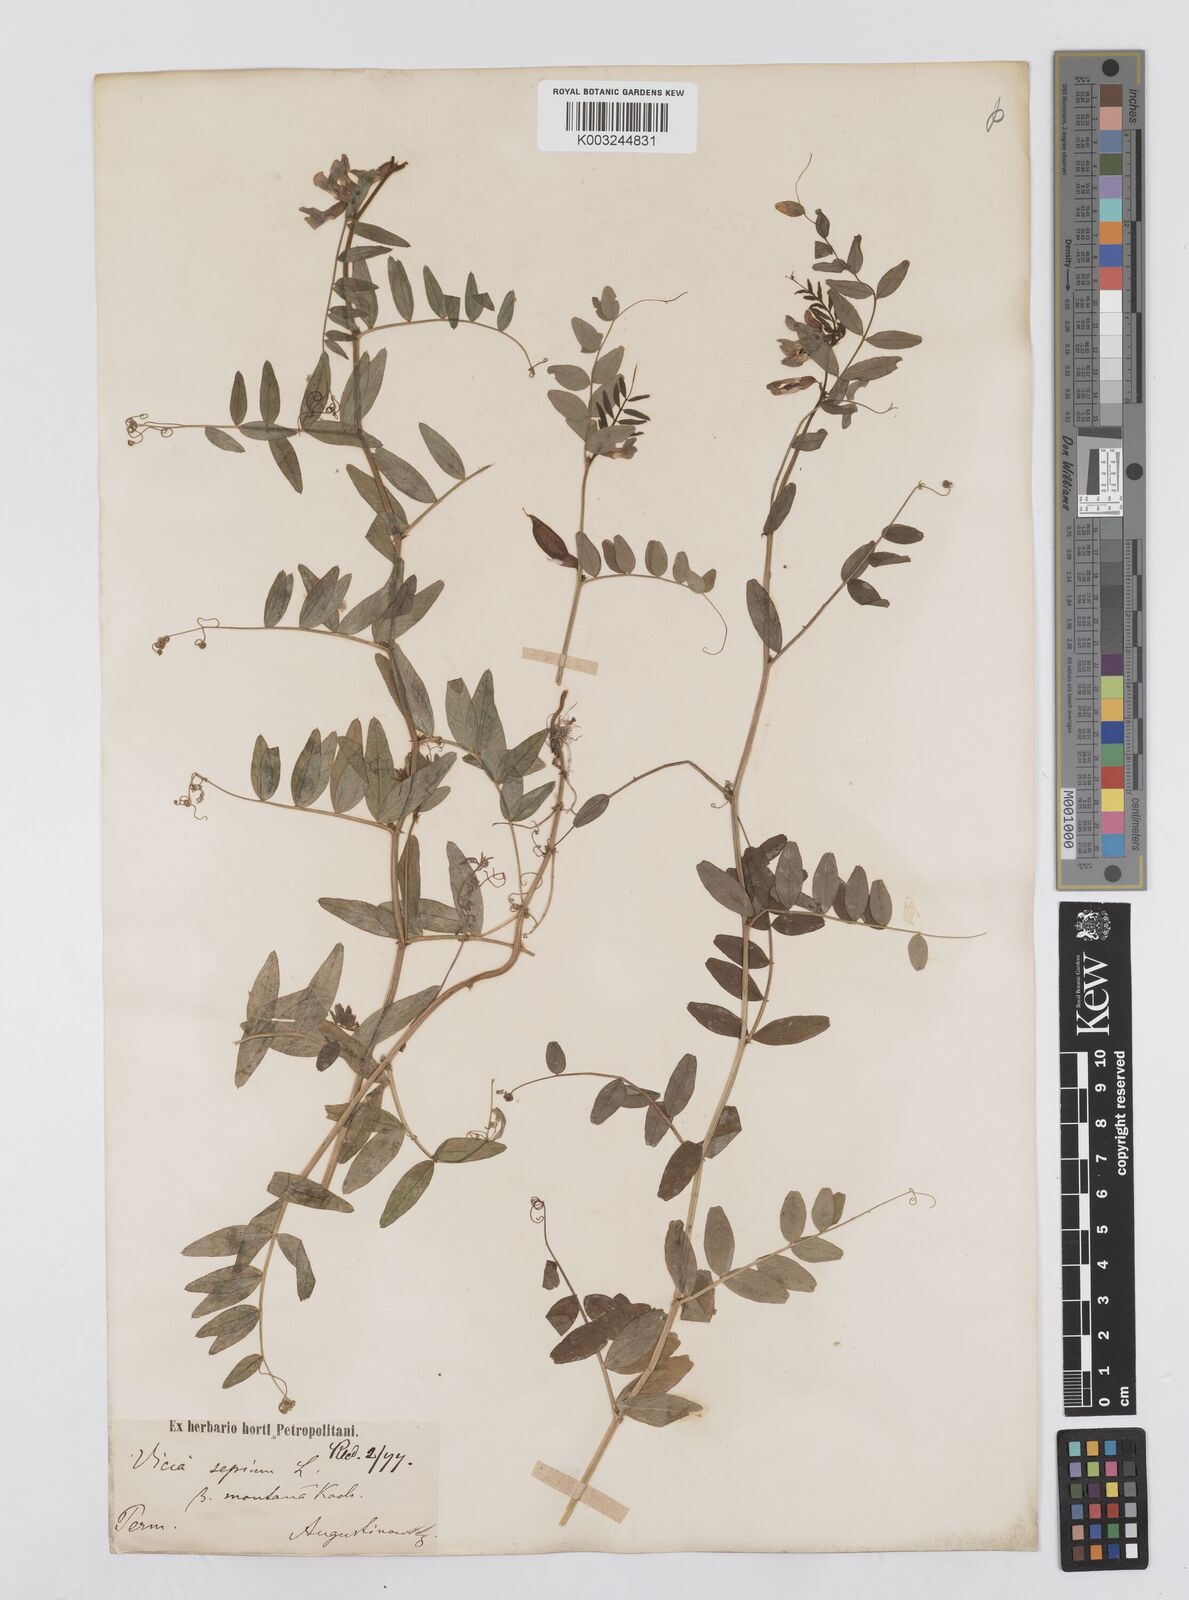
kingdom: Plantae
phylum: Tracheophyta
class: Magnoliopsida
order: Fabales
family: Fabaceae
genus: Vicia
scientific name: Vicia sepium
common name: Bush vetch
